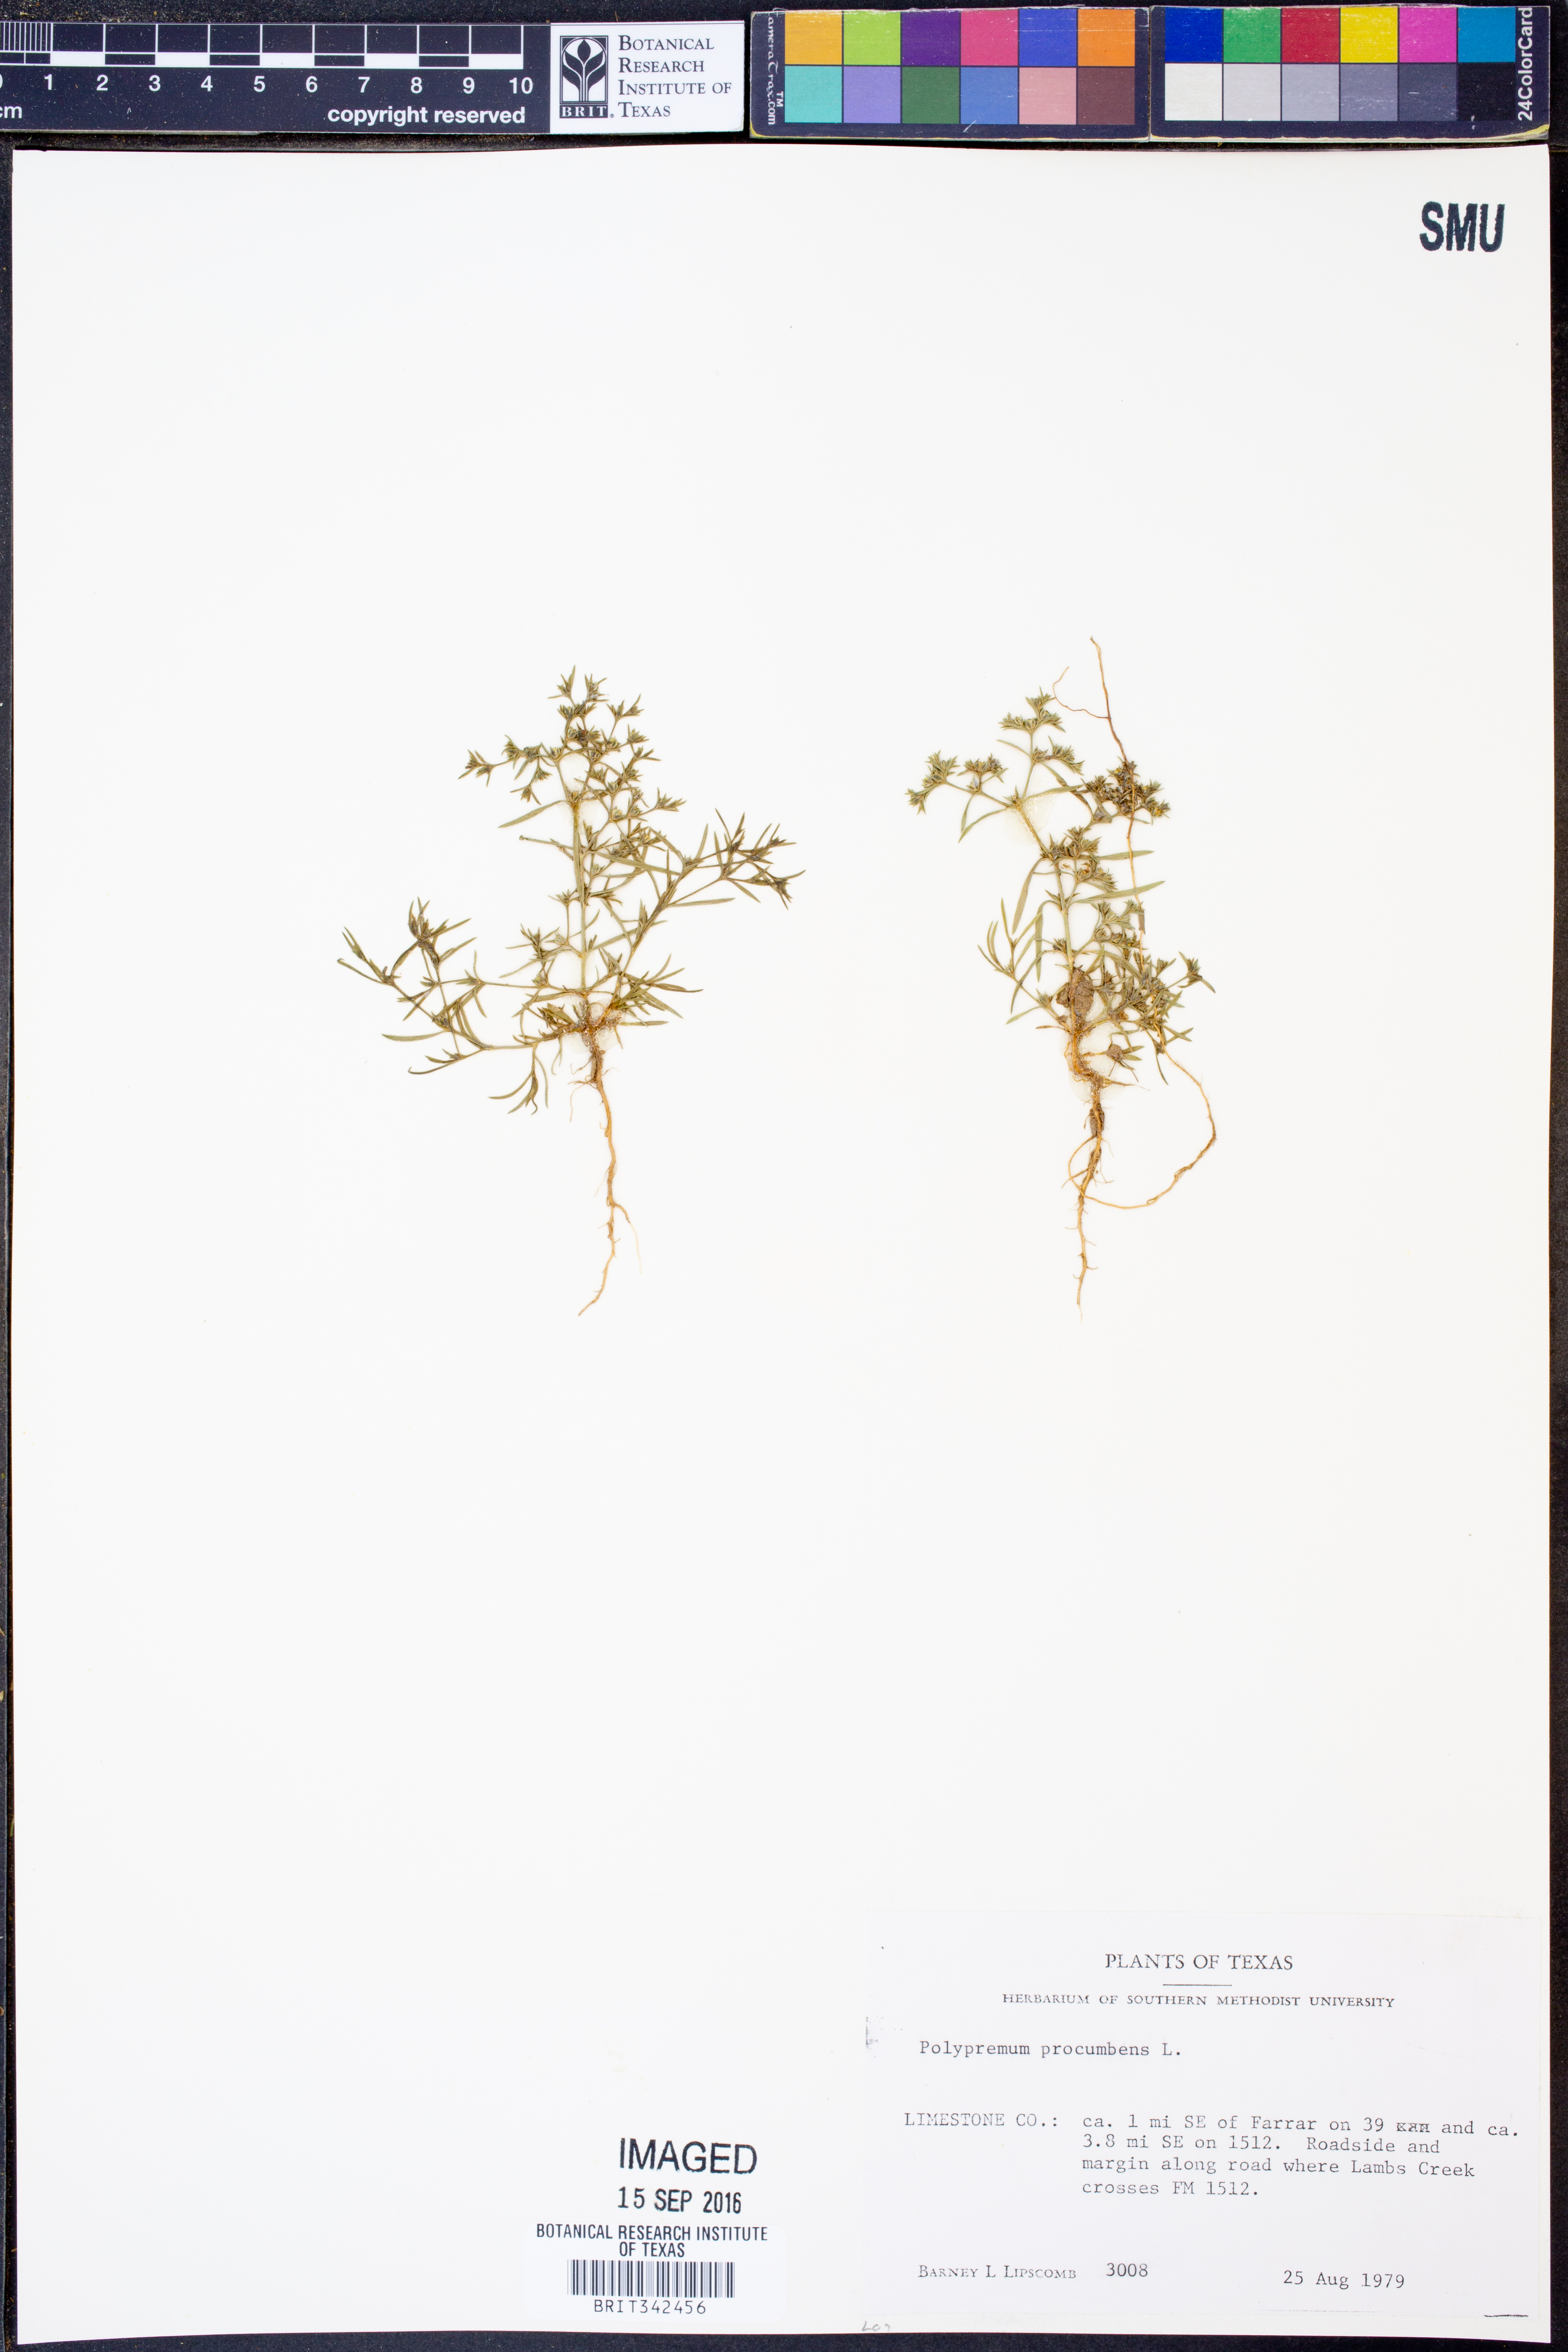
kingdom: Plantae
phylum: Tracheophyta
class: Magnoliopsida
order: Lamiales
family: Tetrachondraceae
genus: Polypremum
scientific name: Polypremum procumbens
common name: Juniper-leaf
